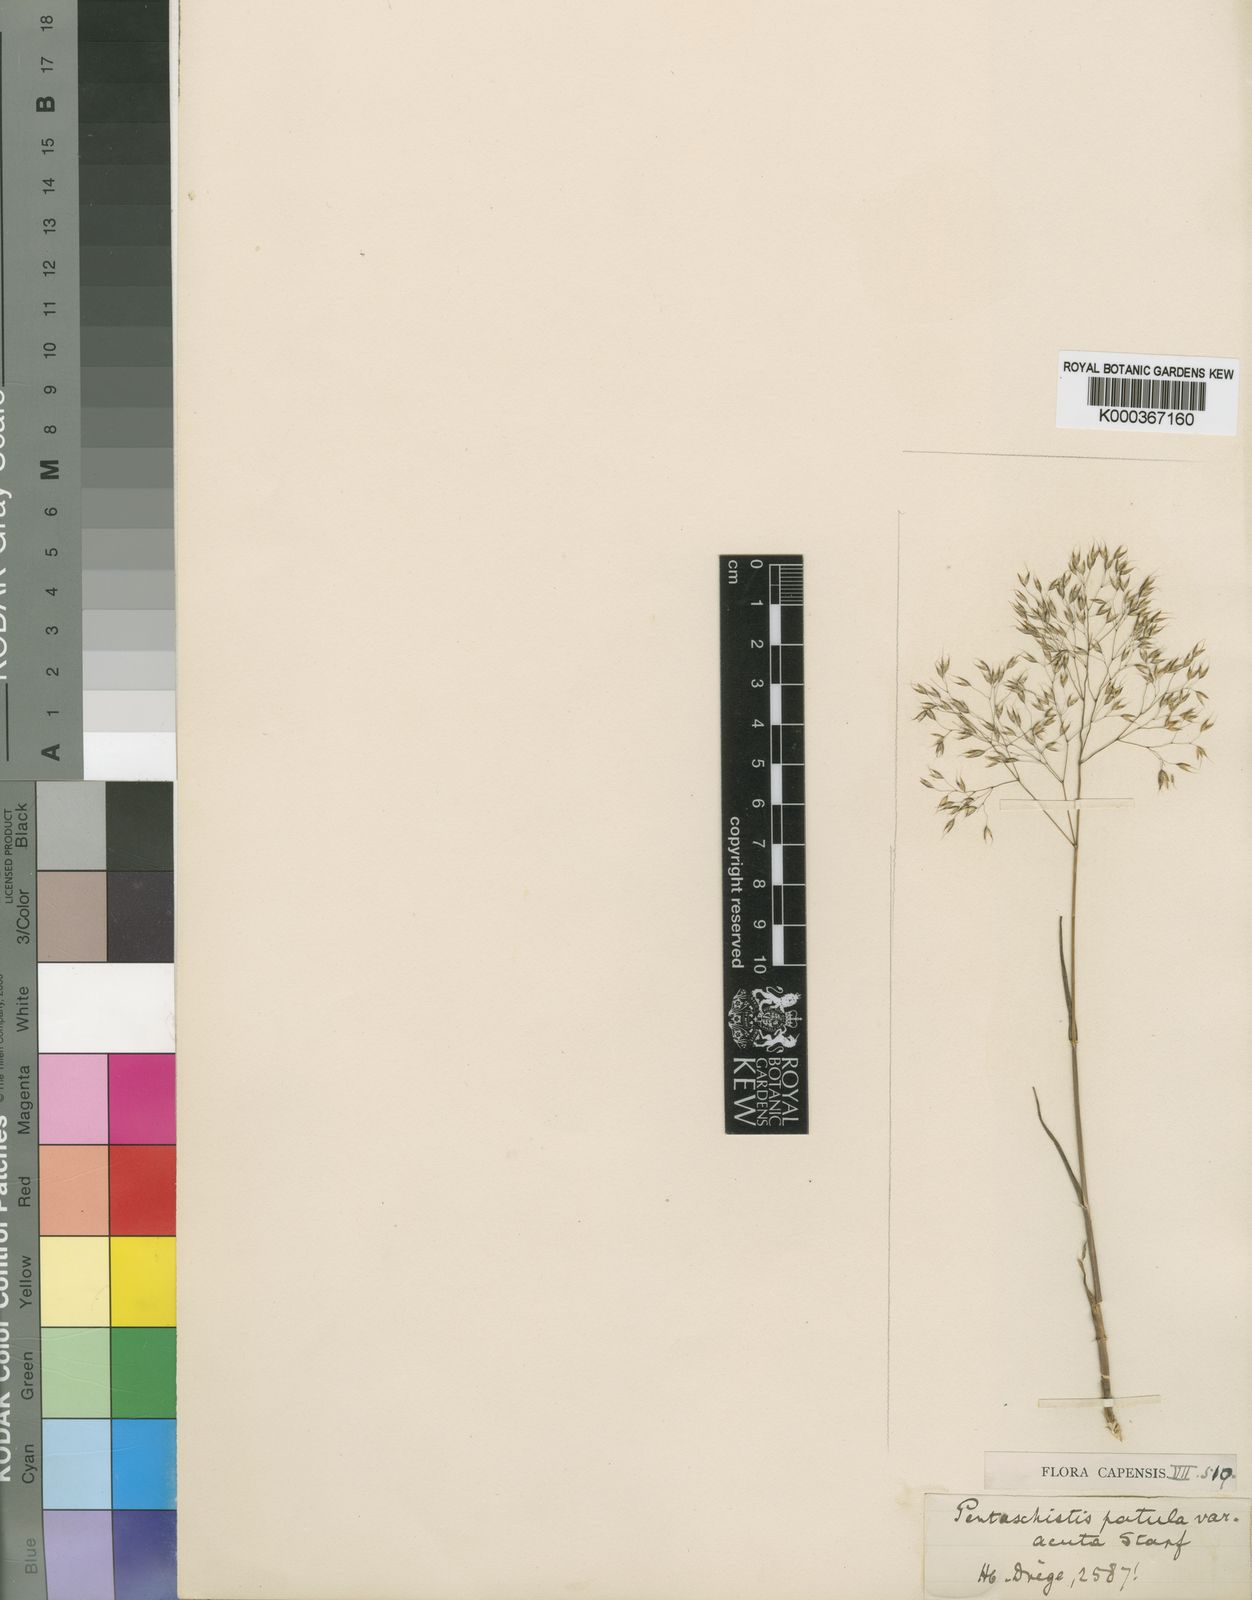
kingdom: Plantae
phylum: Tracheophyta
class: Liliopsida
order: Poales
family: Poaceae
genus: Pentameris
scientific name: Pentameris patula
